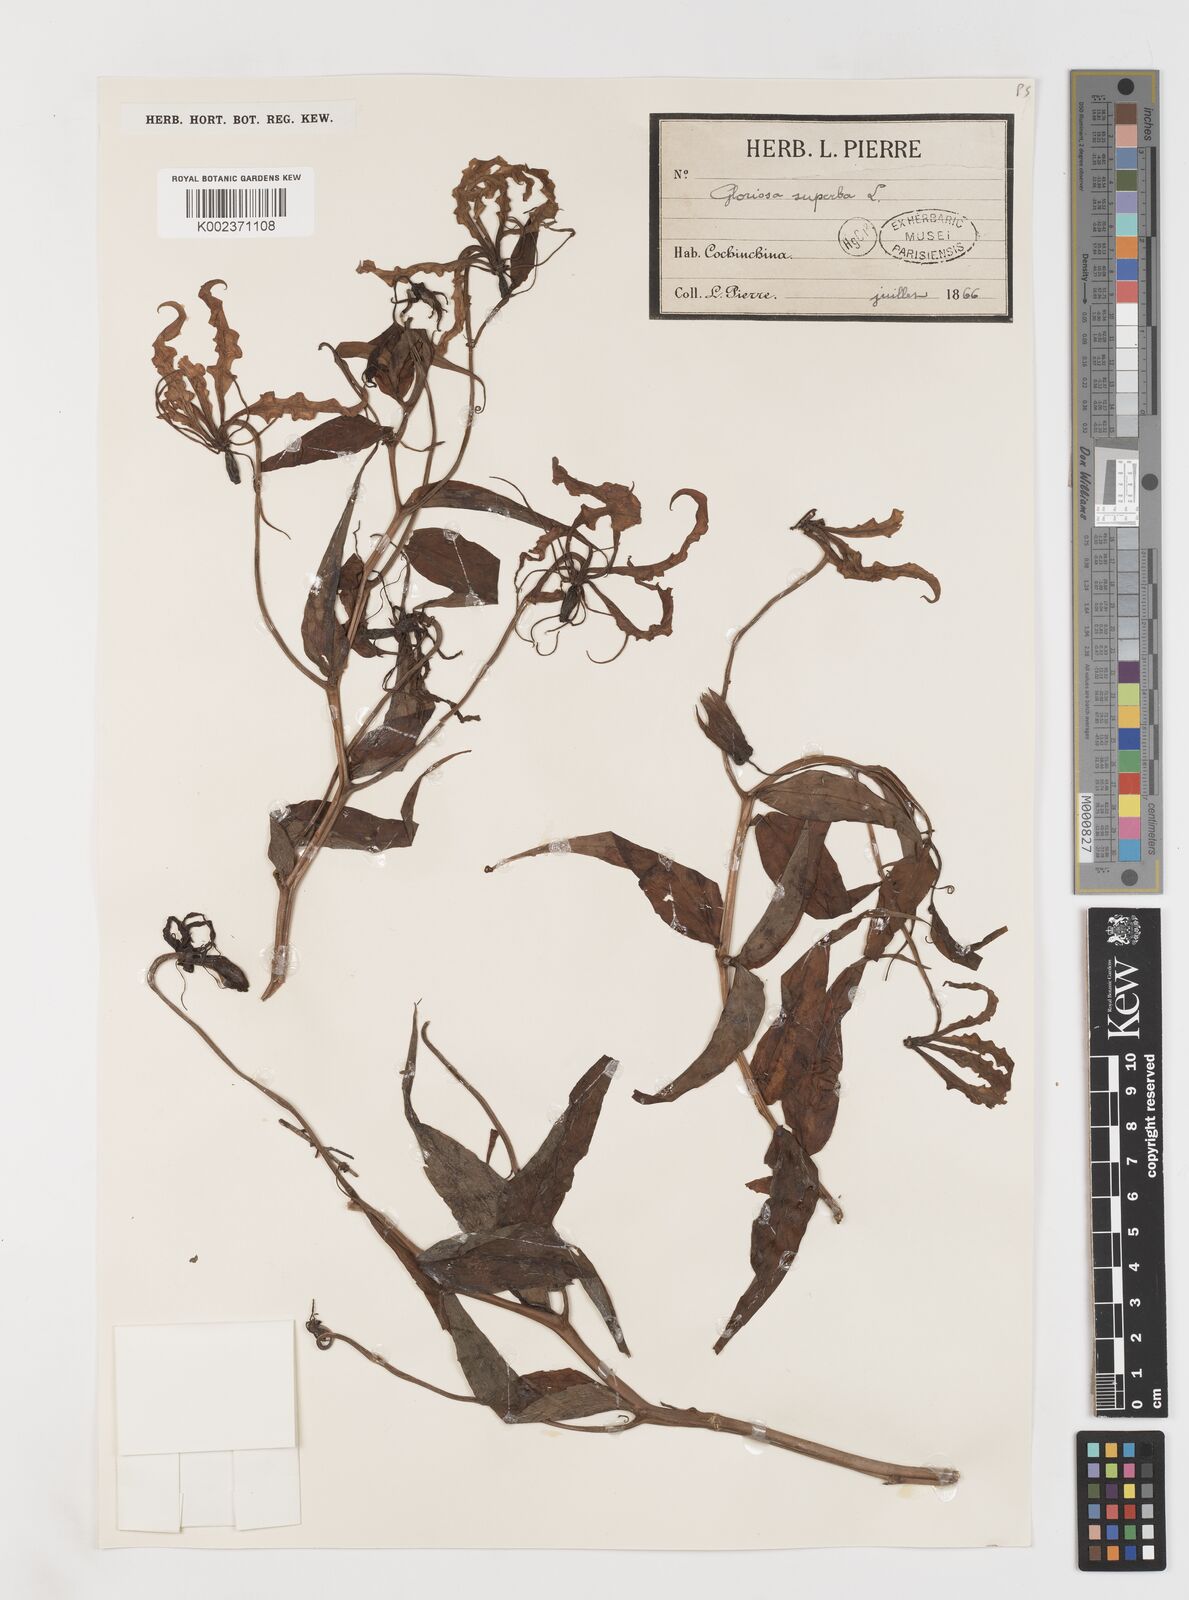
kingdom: Plantae
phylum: Tracheophyta
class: Liliopsida
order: Liliales
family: Colchicaceae
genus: Gloriosa
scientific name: Gloriosa superba
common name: Flame lily
